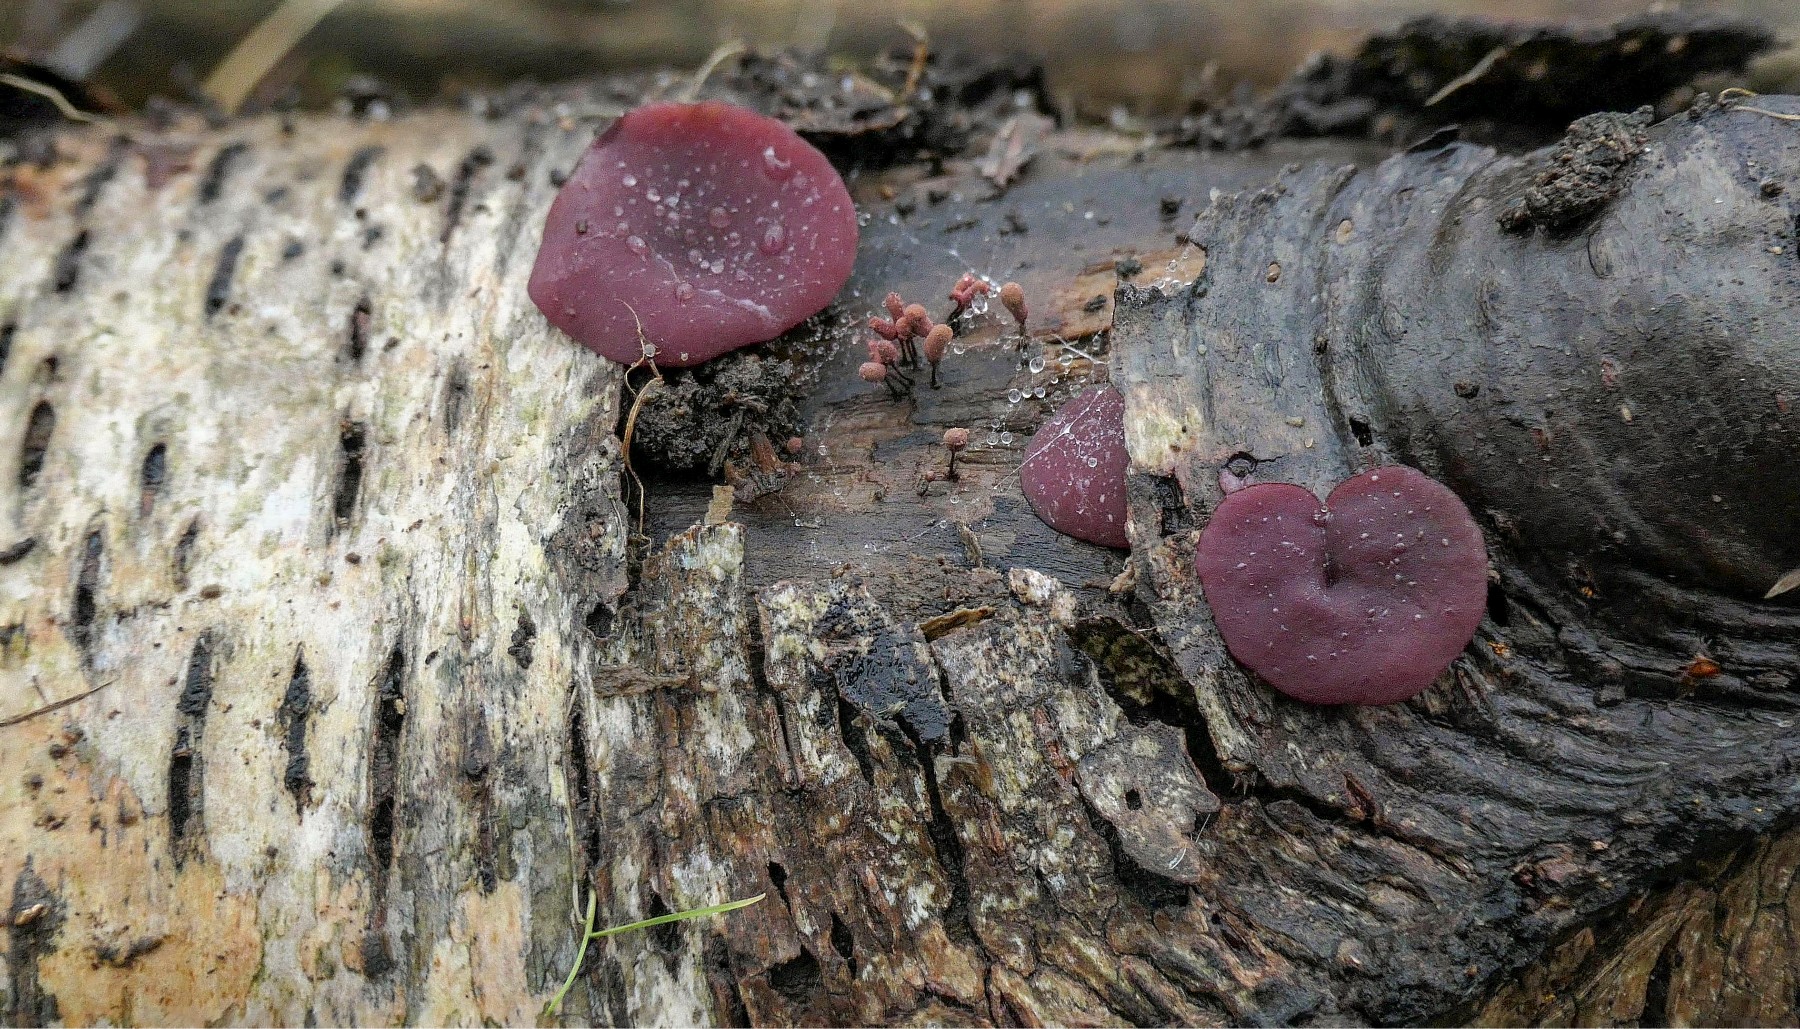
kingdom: Fungi
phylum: Ascomycota
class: Leotiomycetes
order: Helotiales
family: Gelatinodiscaceae
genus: Ascocoryne
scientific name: Ascocoryne cylichnium
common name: stor sejskive
